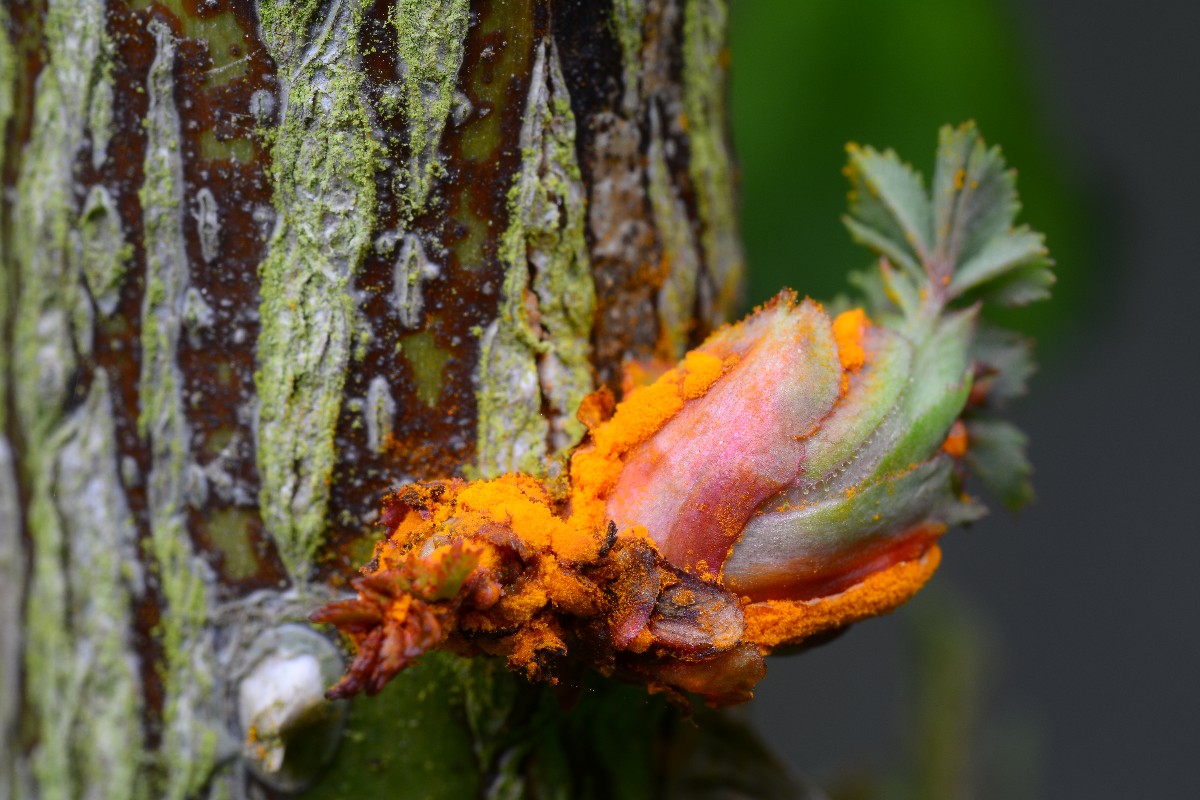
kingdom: Fungi
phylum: Basidiomycota
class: Pucciniomycetes
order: Pucciniales
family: Phragmidiaceae
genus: Phragmidium
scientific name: Phragmidium mucronatum
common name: rose-flercellerust
